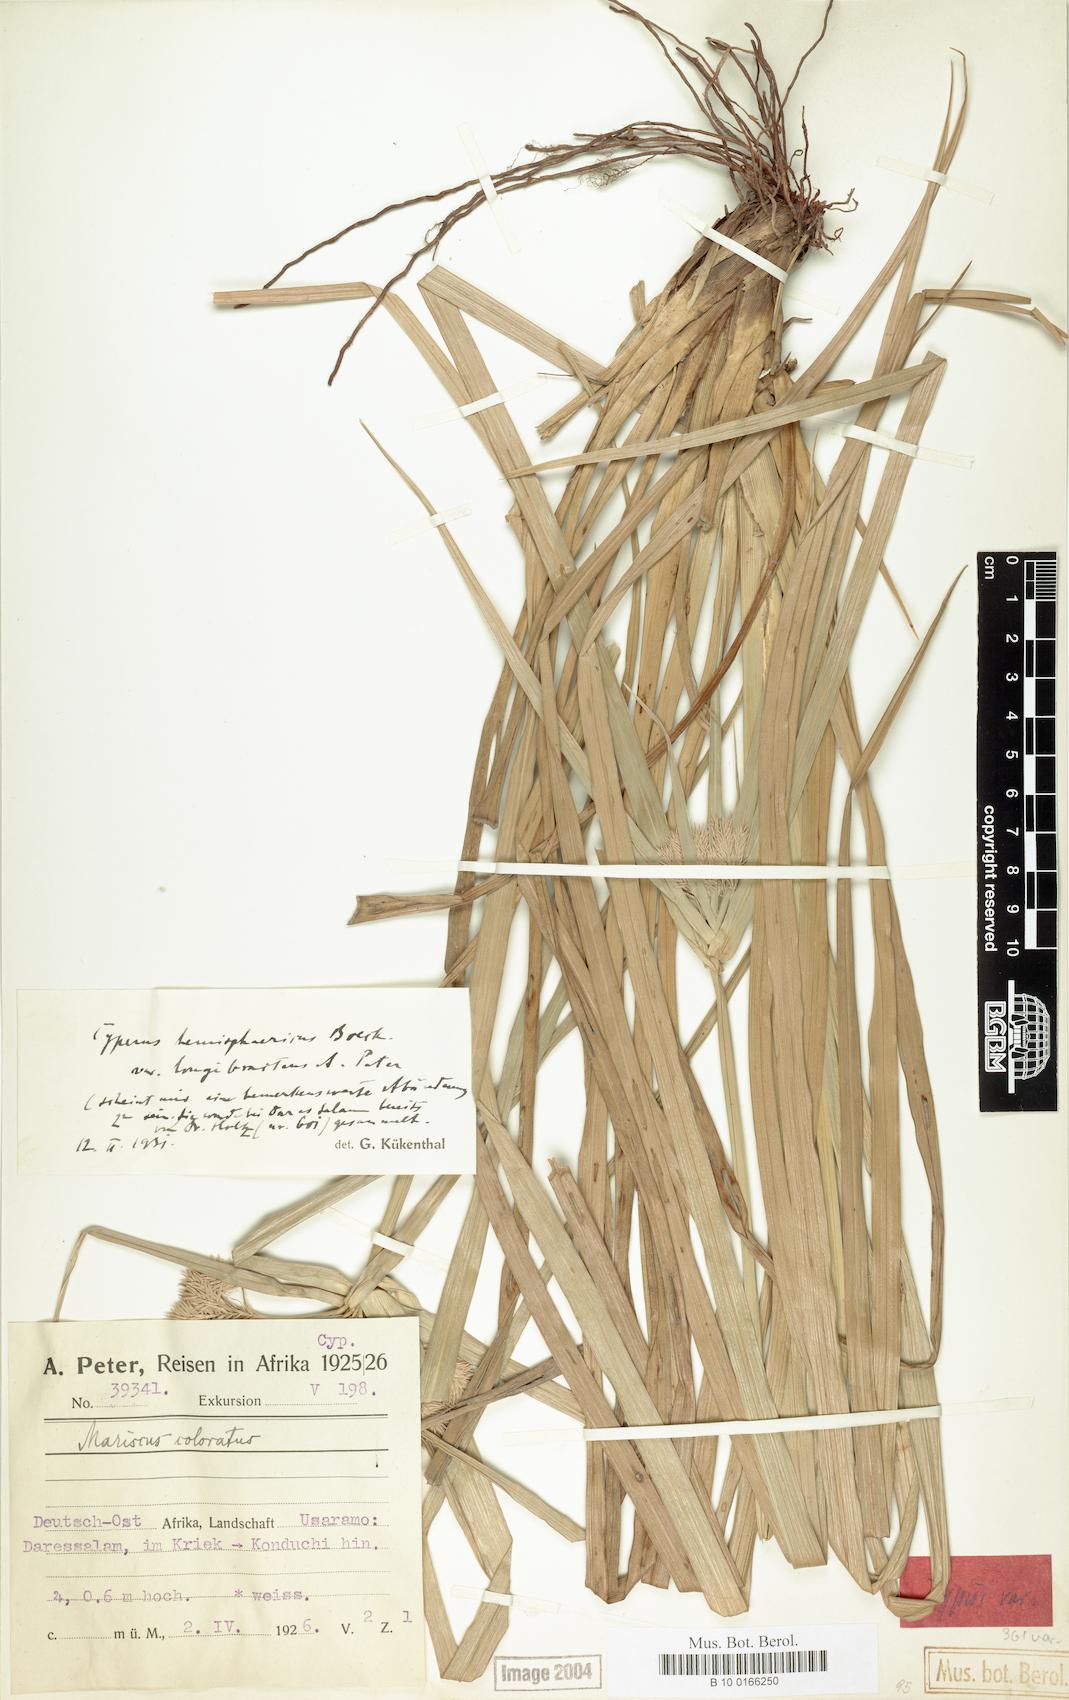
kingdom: Plantae
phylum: Tracheophyta
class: Liliopsida
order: Poales
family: Cyperaceae
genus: Cyperus
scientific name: Cyperus hemisphaericus
